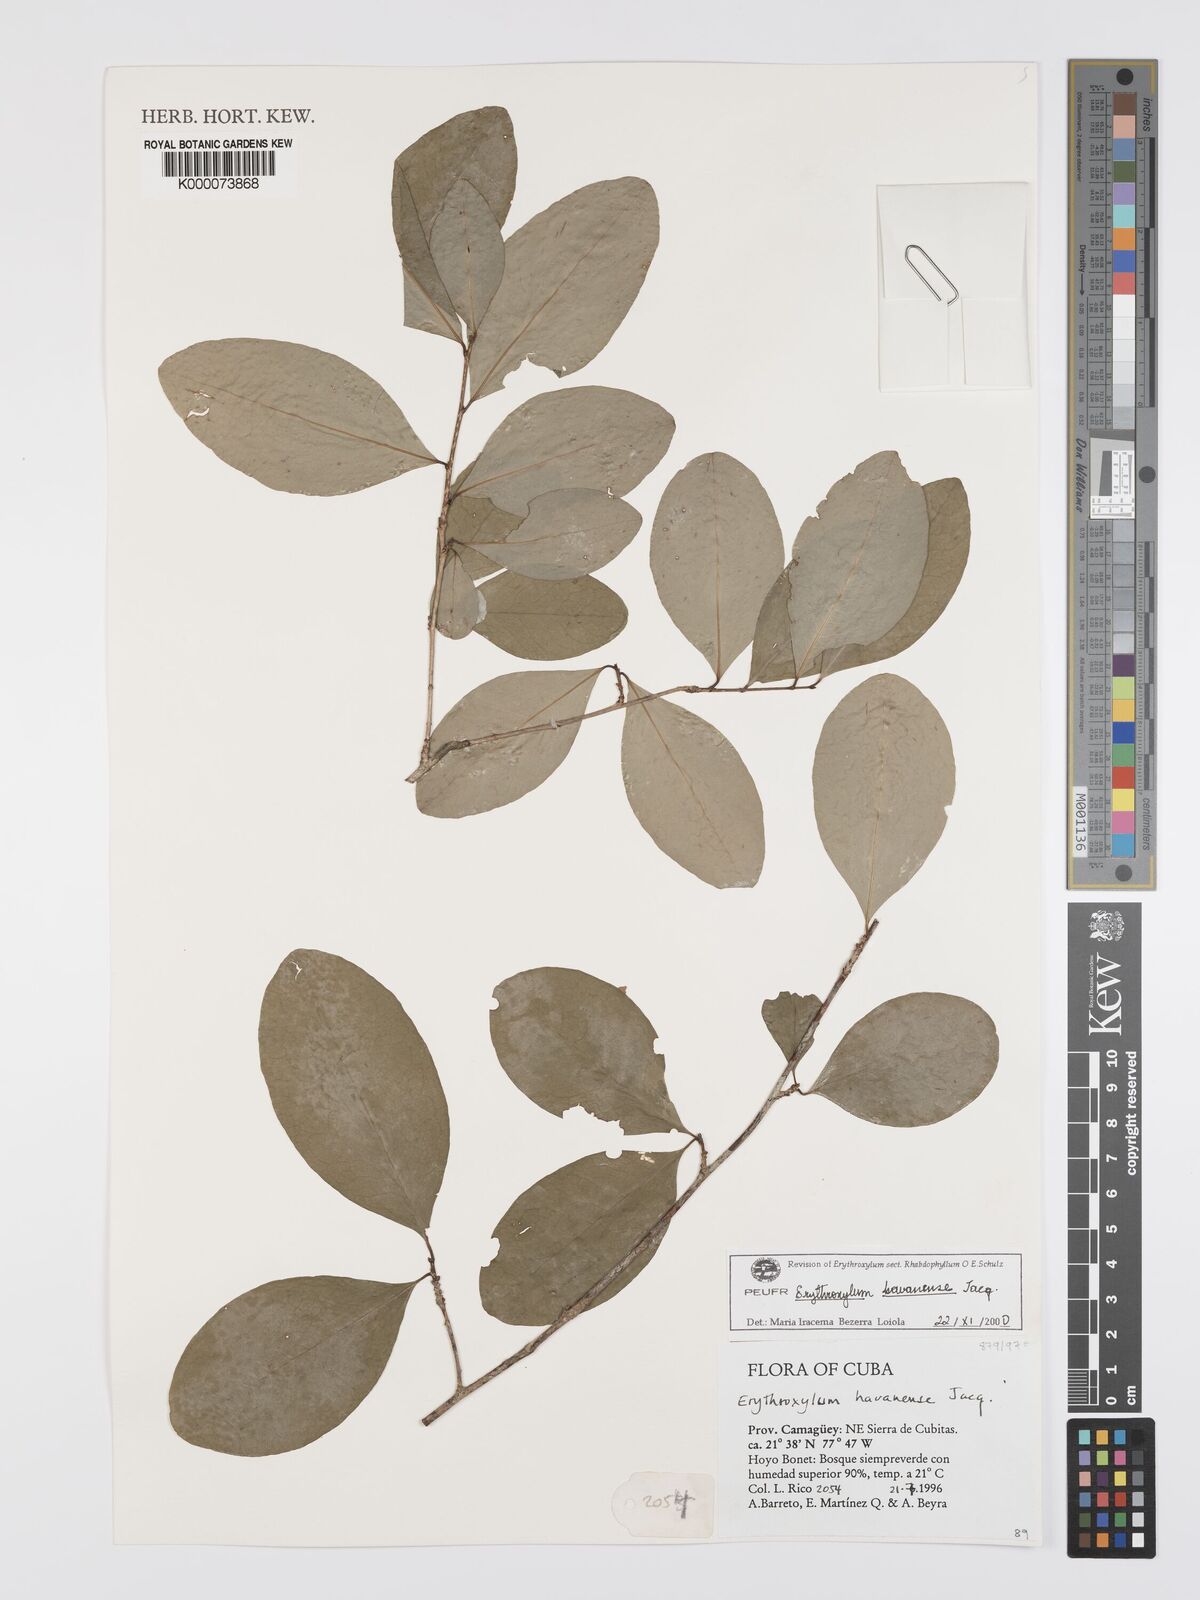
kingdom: Plantae
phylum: Tracheophyta
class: Magnoliopsida
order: Malpighiales
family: Erythroxylaceae
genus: Erythroxylum
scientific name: Erythroxylum
